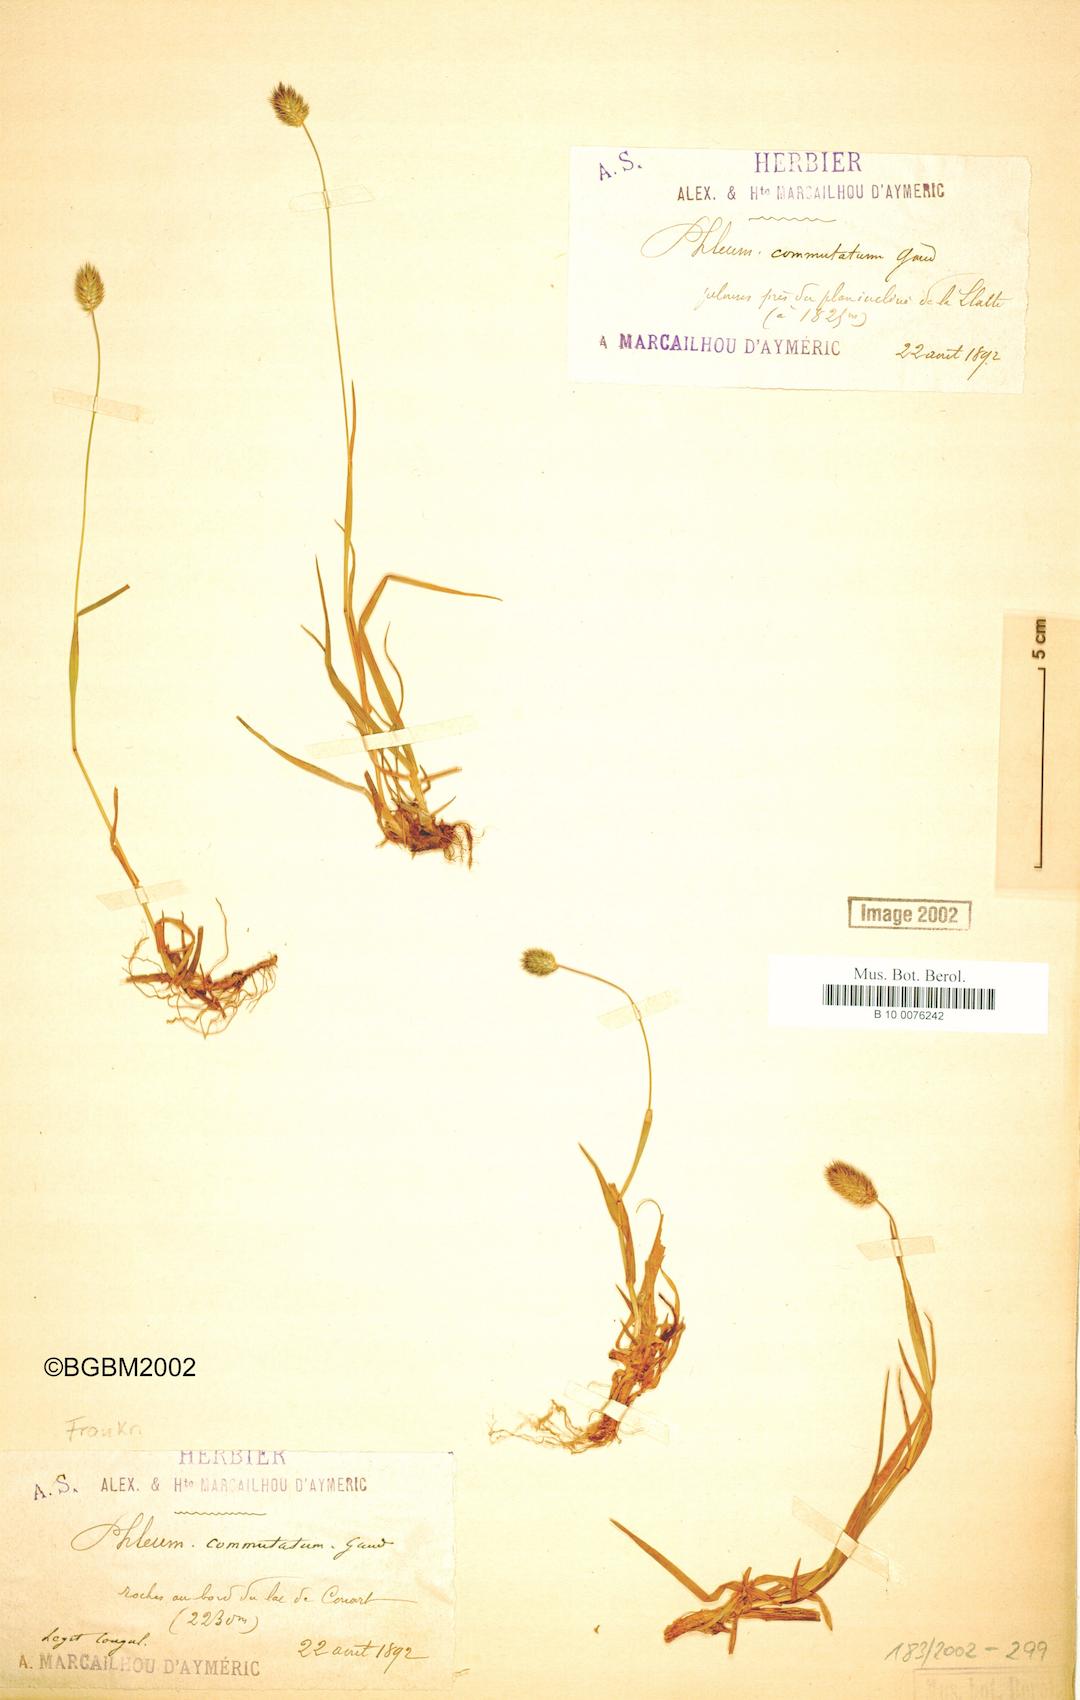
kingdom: Plantae
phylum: Tracheophyta
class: Liliopsida
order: Poales
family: Poaceae
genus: Phleum
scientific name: Phleum alpinum
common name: Alpine cat's-tail
